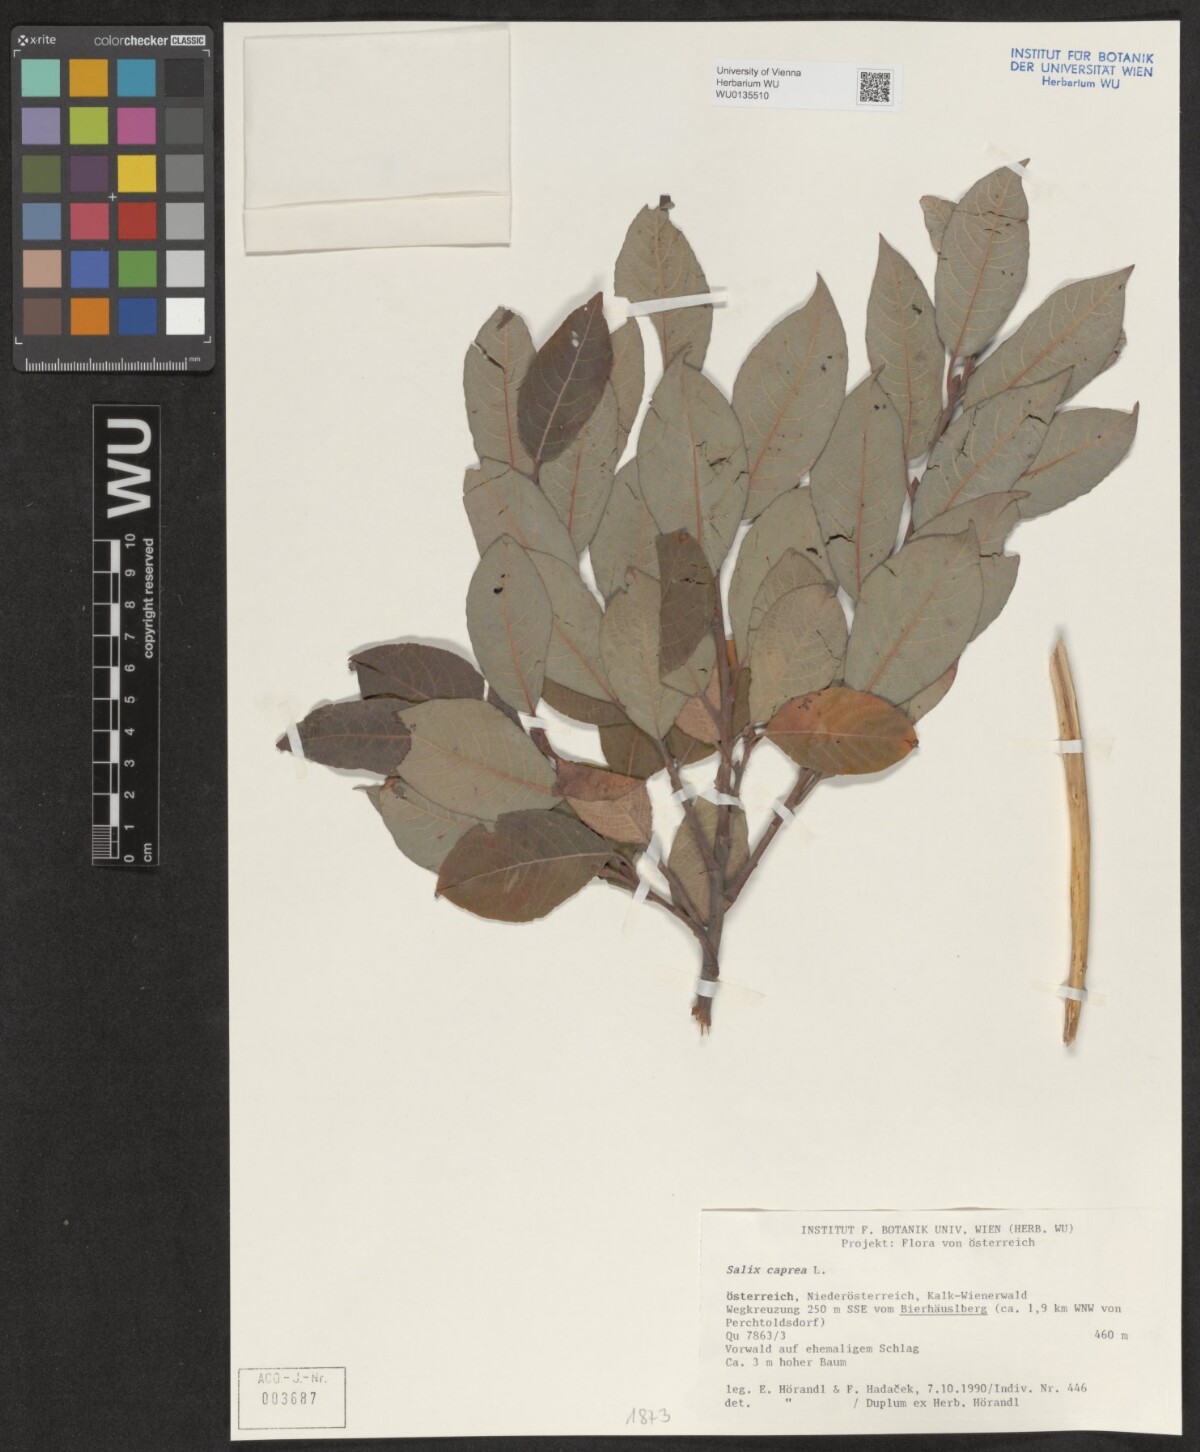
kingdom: Plantae
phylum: Tracheophyta
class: Magnoliopsida
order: Malpighiales
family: Salicaceae
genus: Salix
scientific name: Salix caprea
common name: Goat willow
